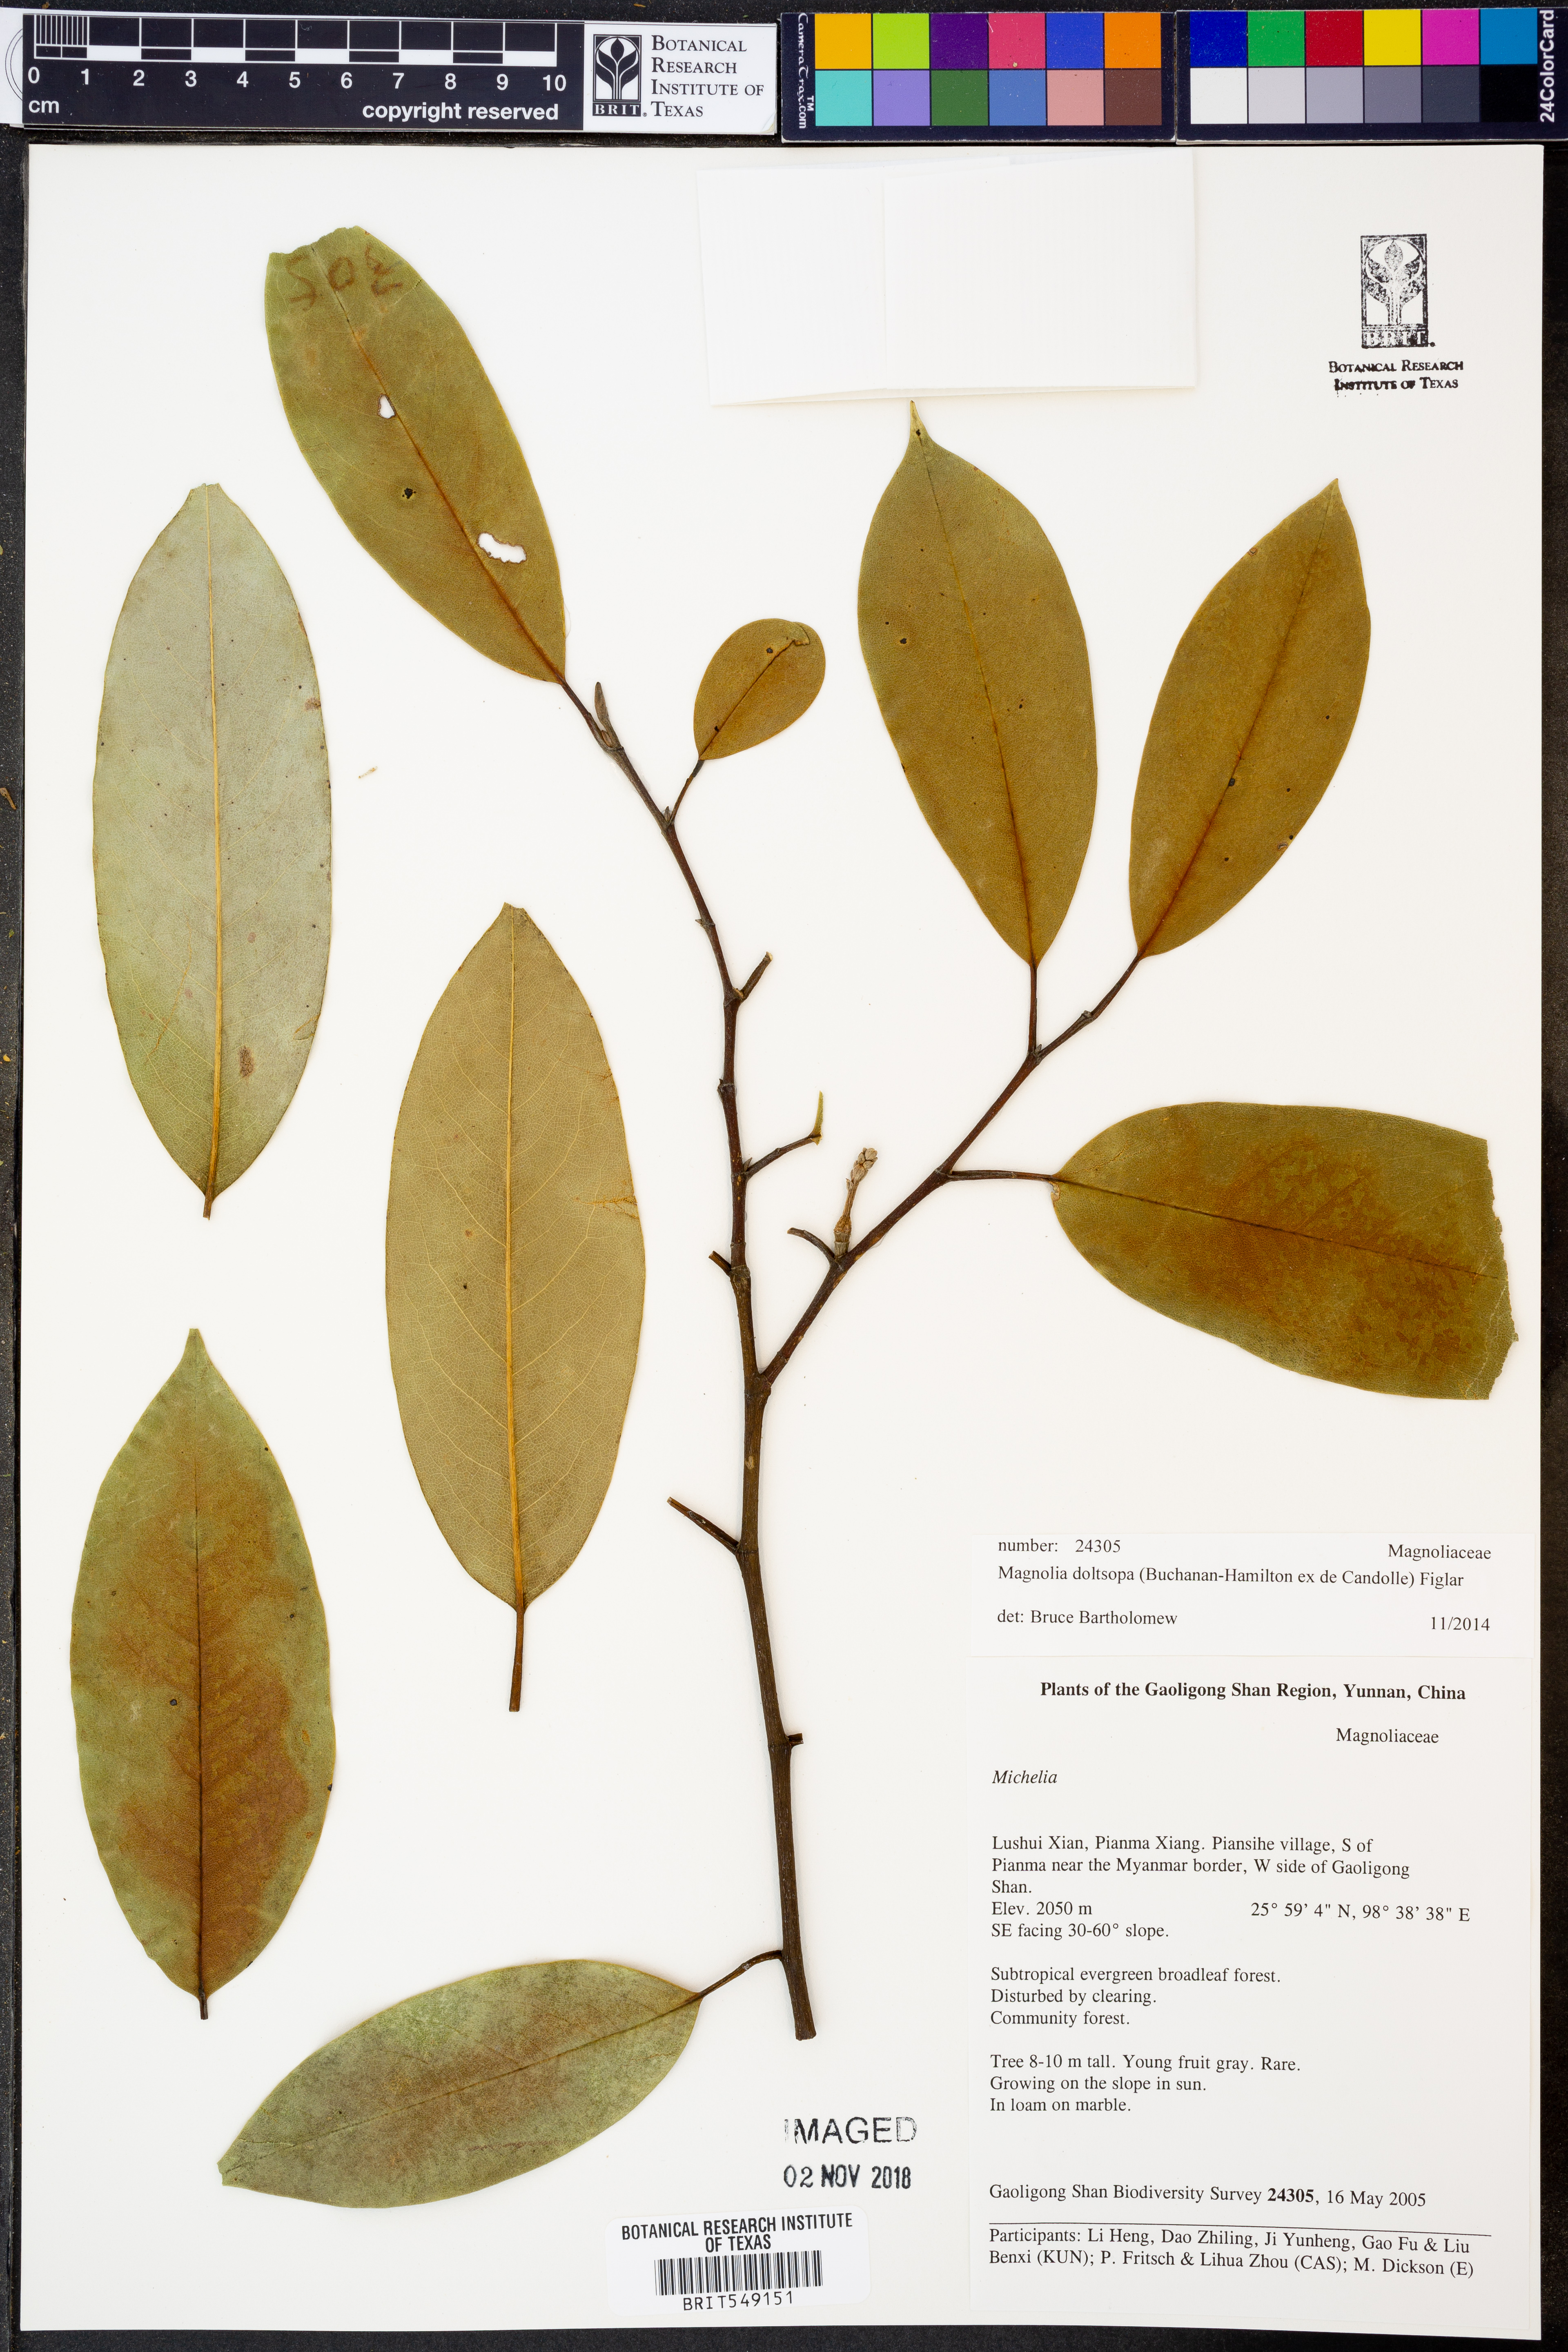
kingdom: Plantae
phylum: Tracheophyta
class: Magnoliopsida
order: Magnoliales
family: Magnoliaceae
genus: Magnolia
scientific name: Magnolia doltsopa
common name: Sweet michelia
